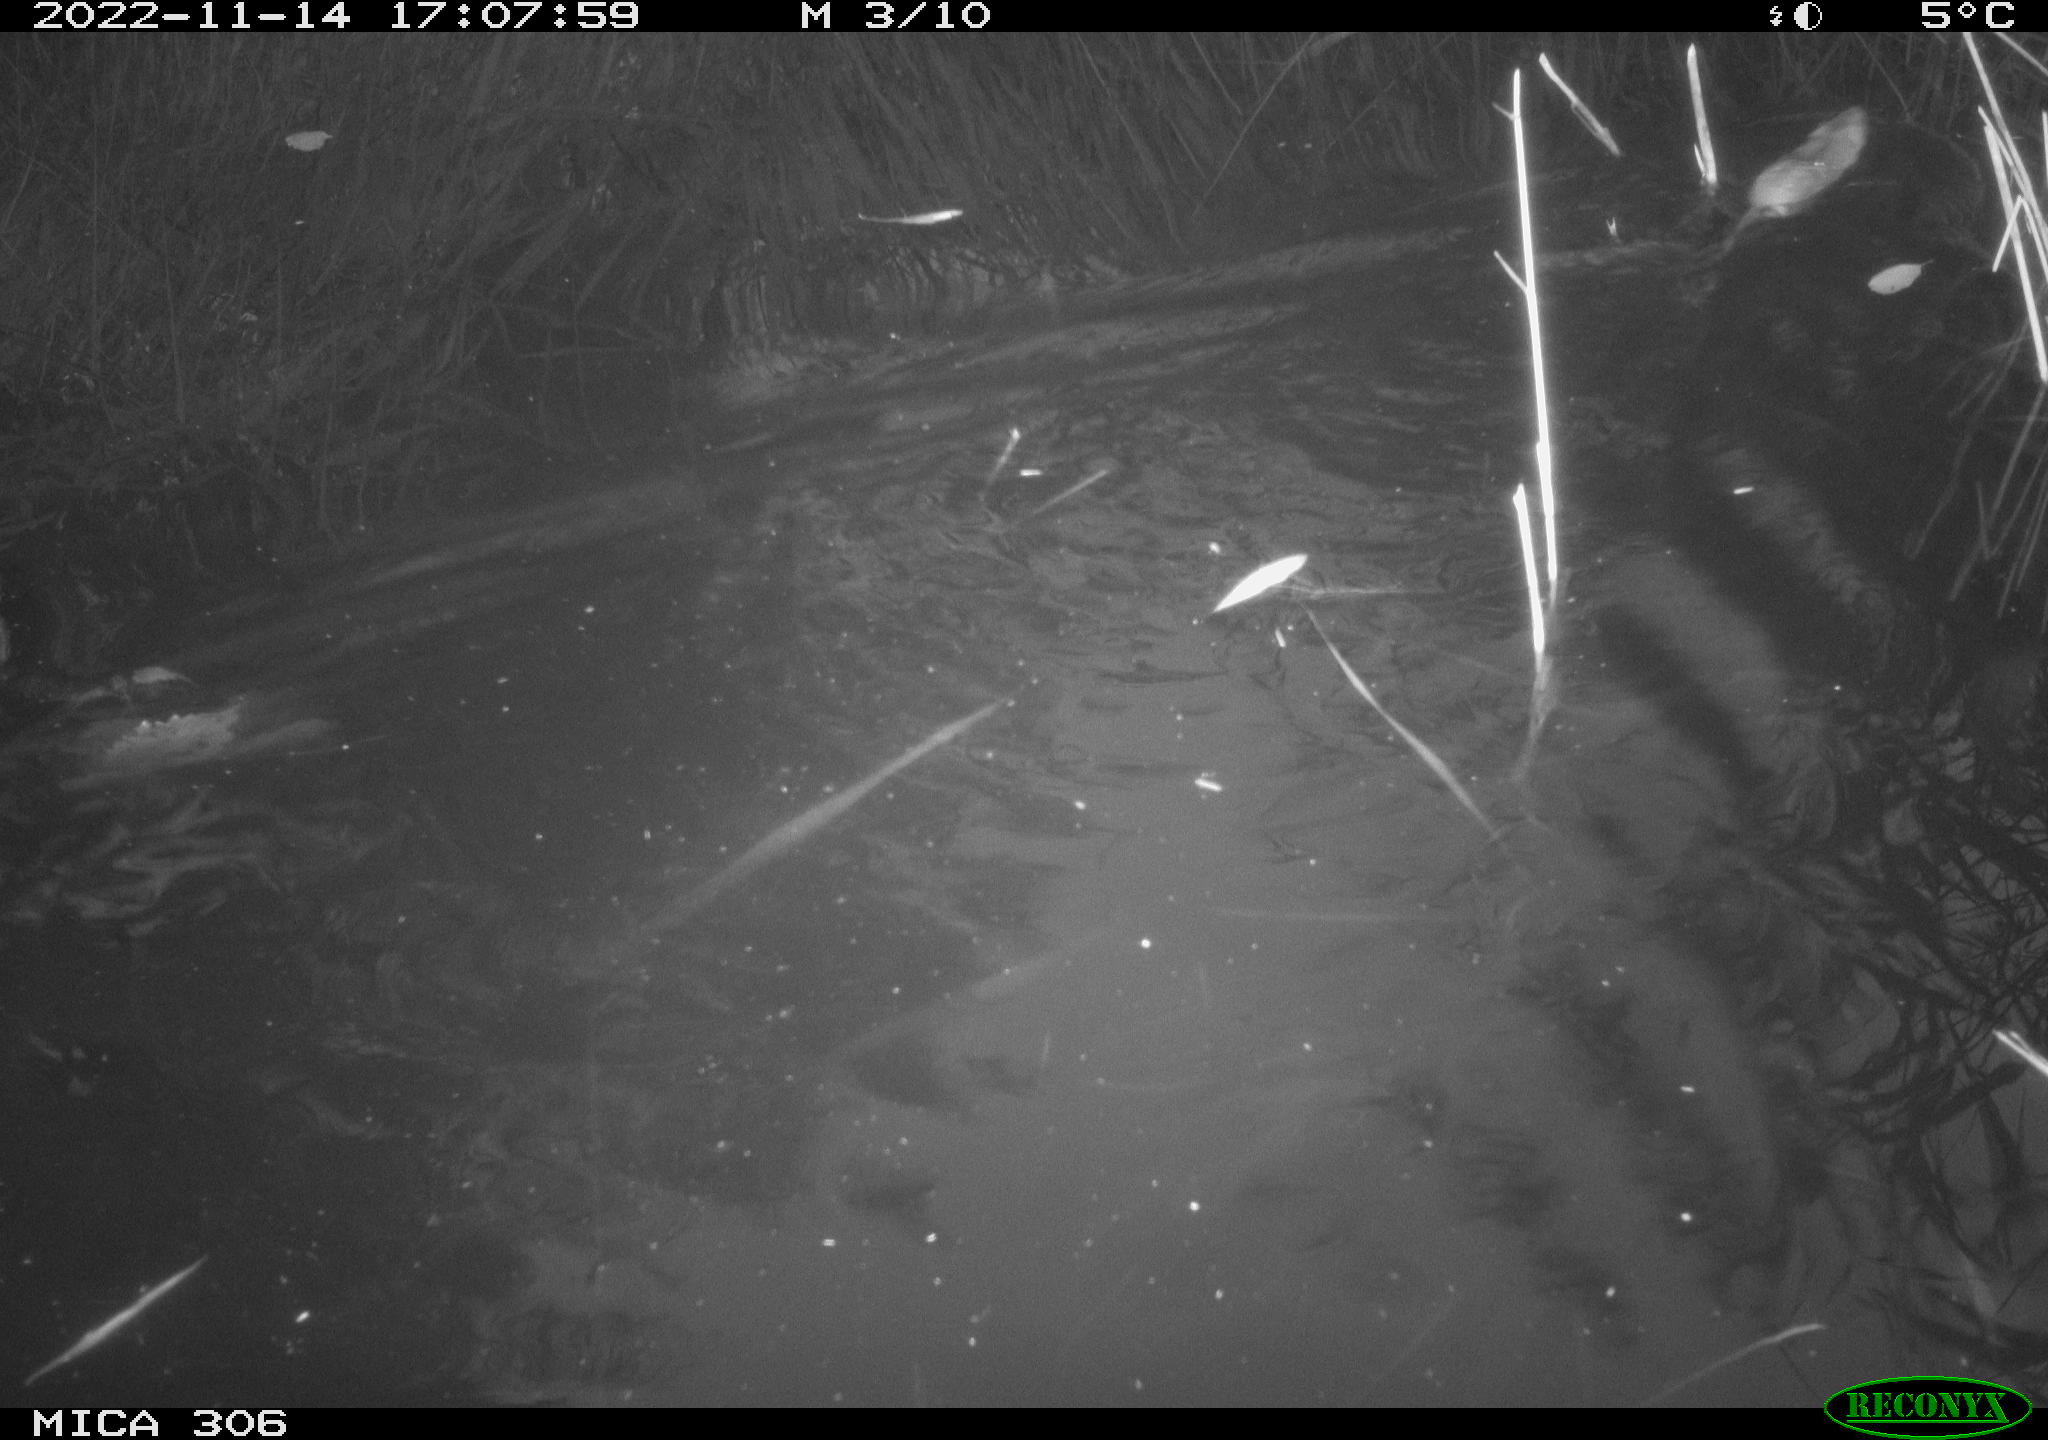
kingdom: Animalia
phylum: Chordata
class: Mammalia
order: Rodentia
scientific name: Rodentia
